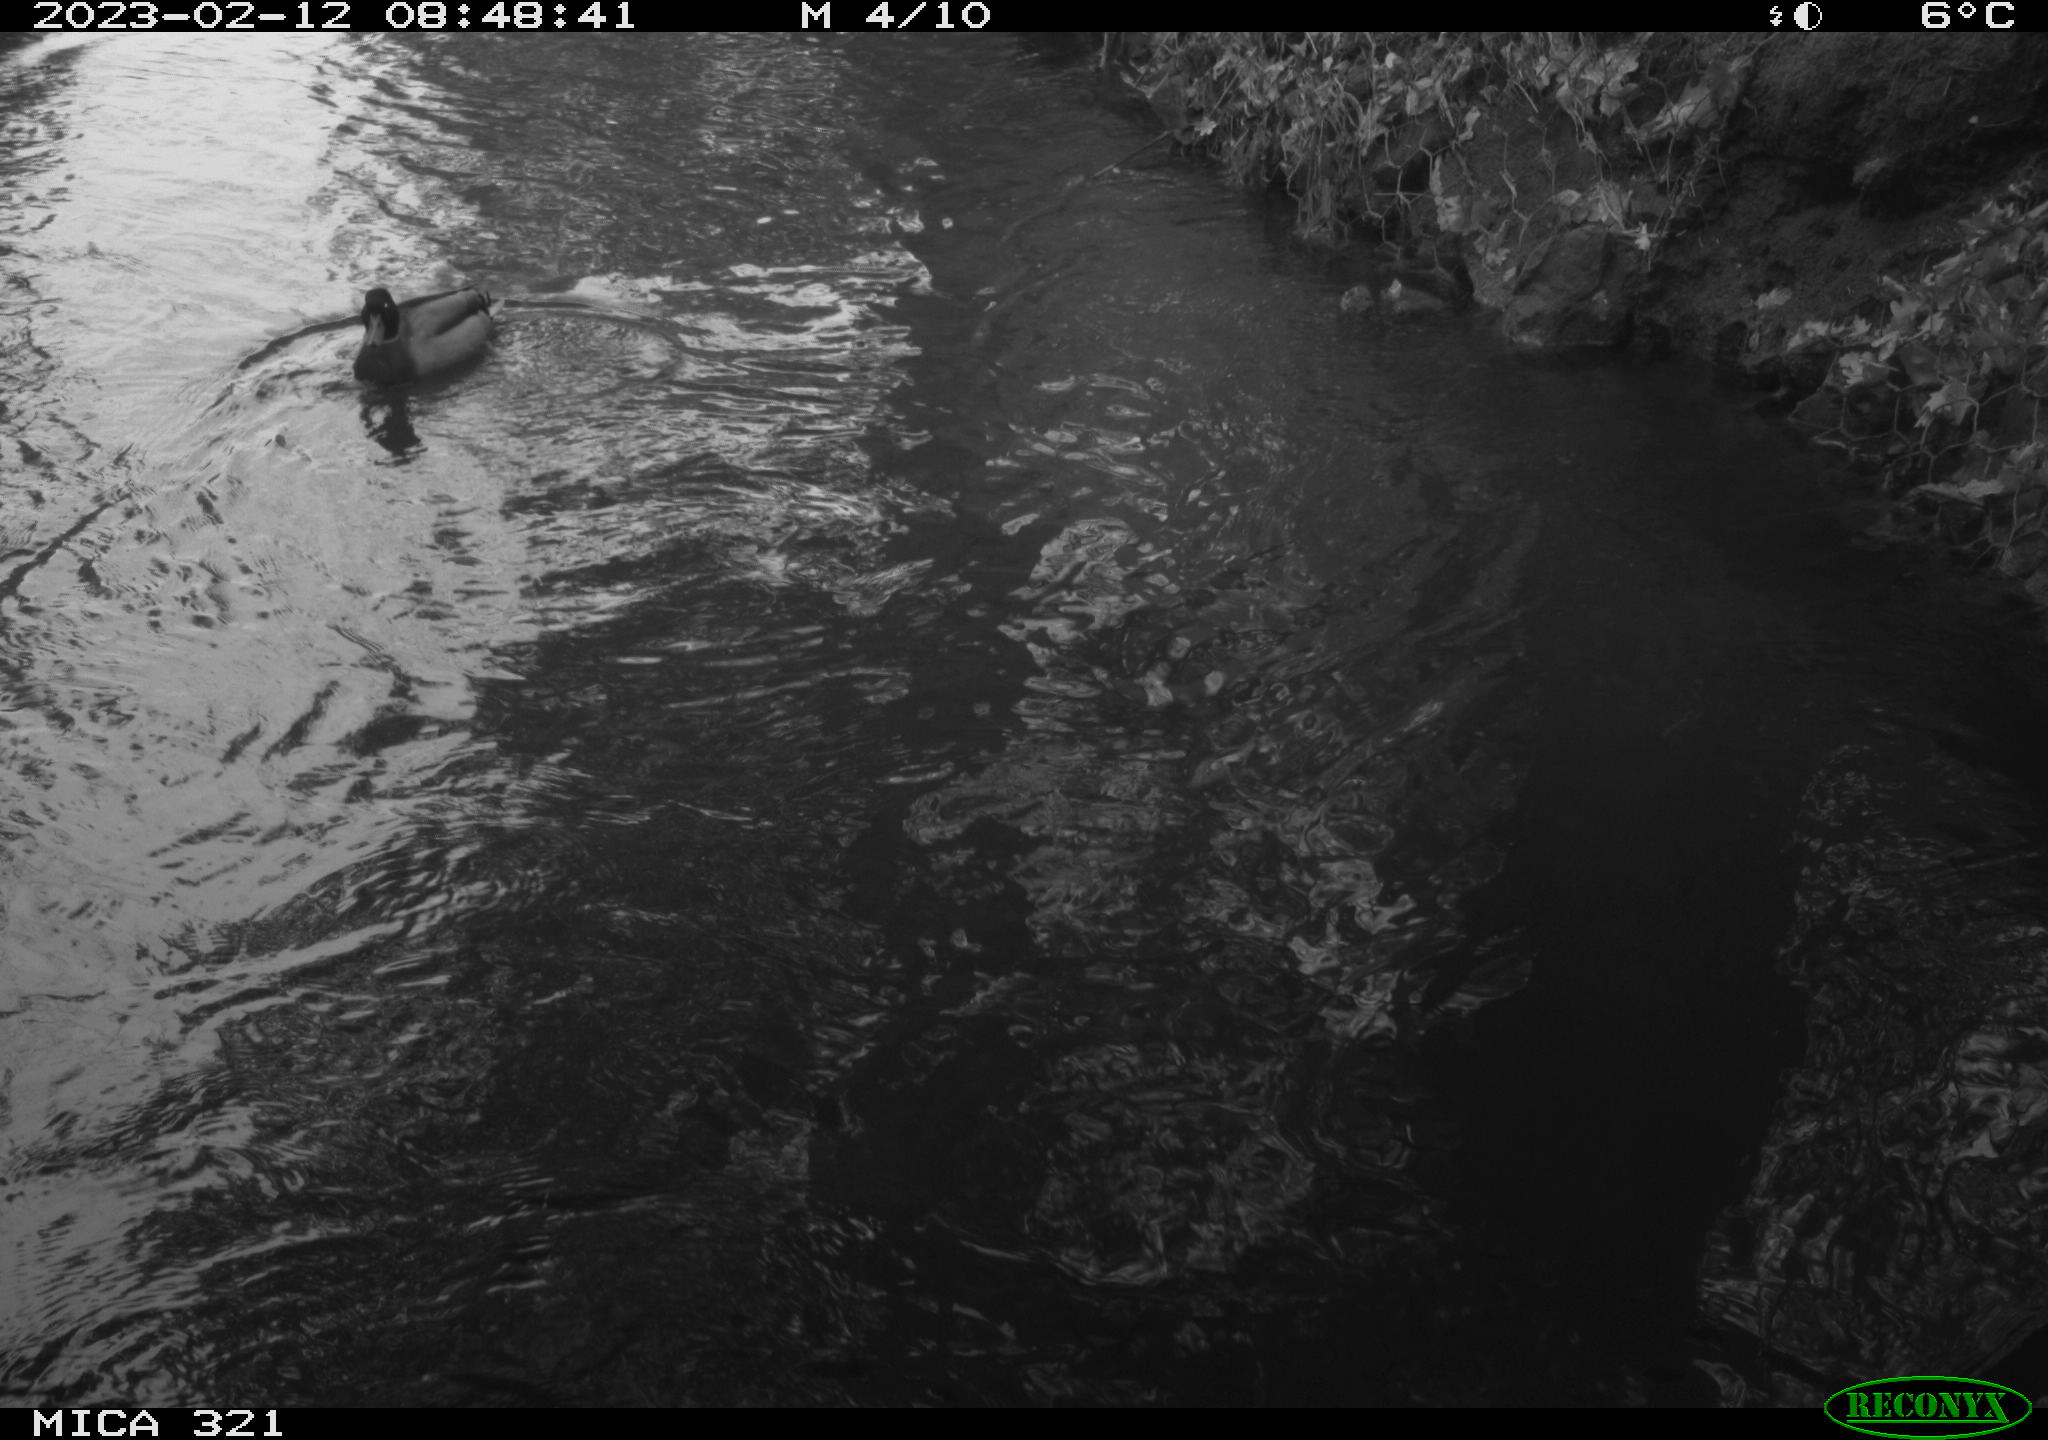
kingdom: Animalia
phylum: Chordata
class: Aves
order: Anseriformes
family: Anatidae
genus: Anas
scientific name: Anas
